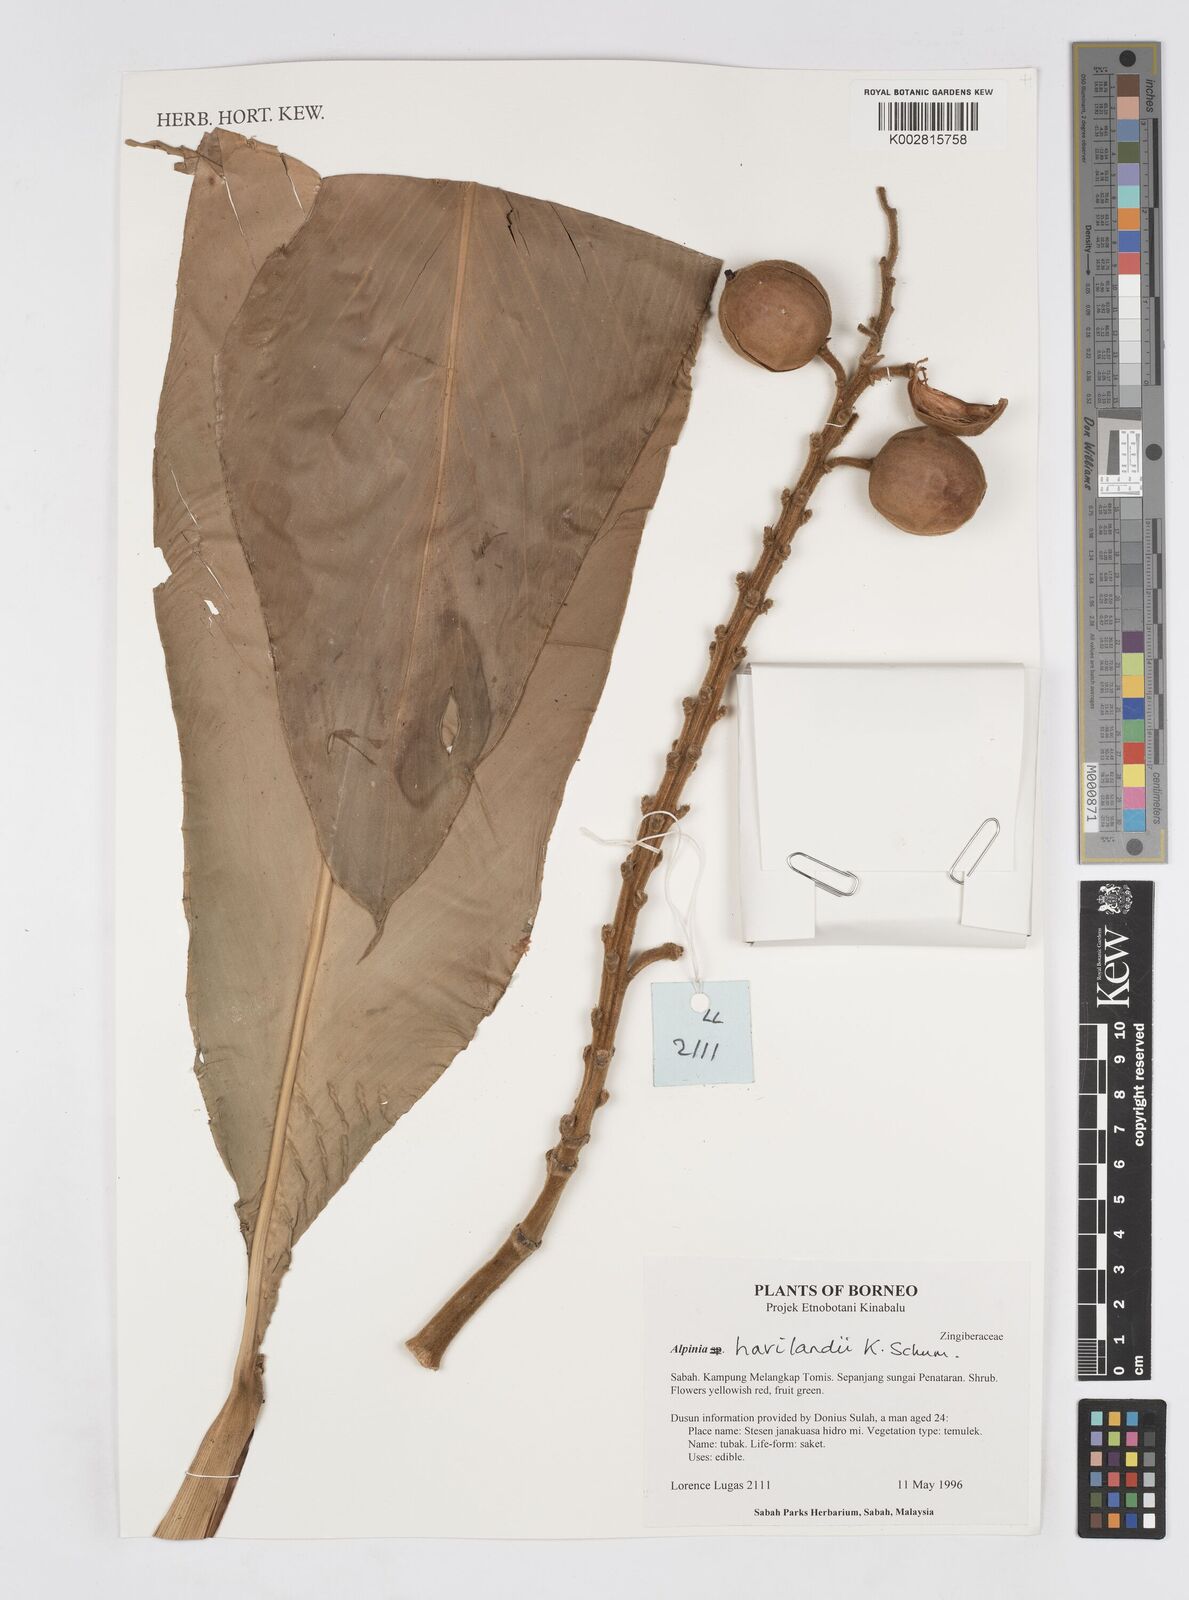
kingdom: Plantae
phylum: Tracheophyta
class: Liliopsida
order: Zingiberales
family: Zingiberaceae
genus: Alpinia
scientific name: Alpinia havilandii
